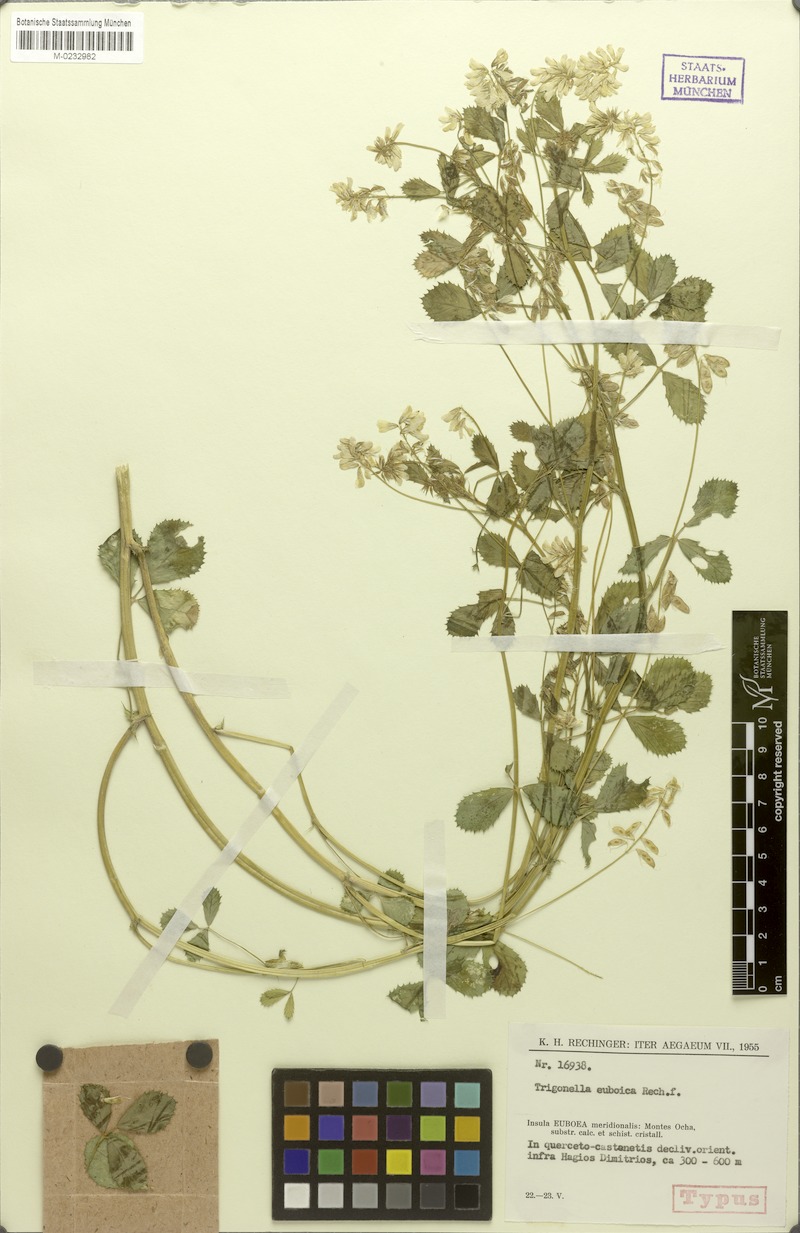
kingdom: Plantae
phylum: Tracheophyta
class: Magnoliopsida
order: Fabales
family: Fabaceae
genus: Trigonella
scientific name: Trigonella balansae
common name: Sickle-fruited fenugreek
